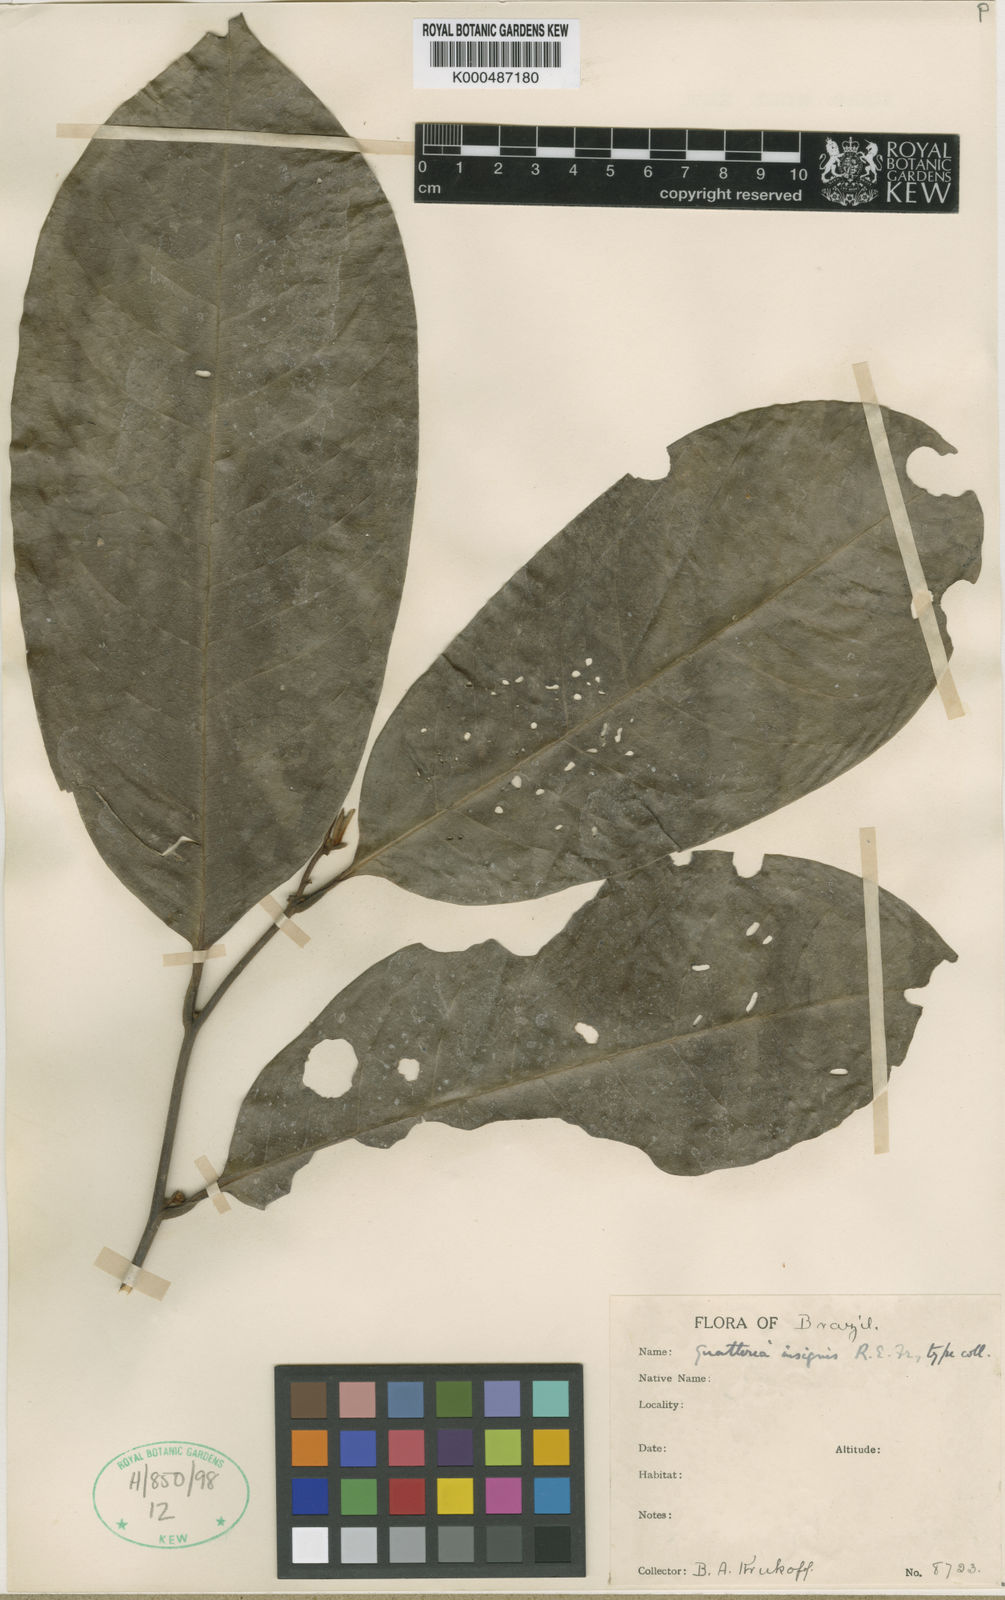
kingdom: Plantae
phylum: Tracheophyta
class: Magnoliopsida
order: Magnoliales
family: Annonaceae
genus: Guatteria
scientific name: Guatteria insignis
